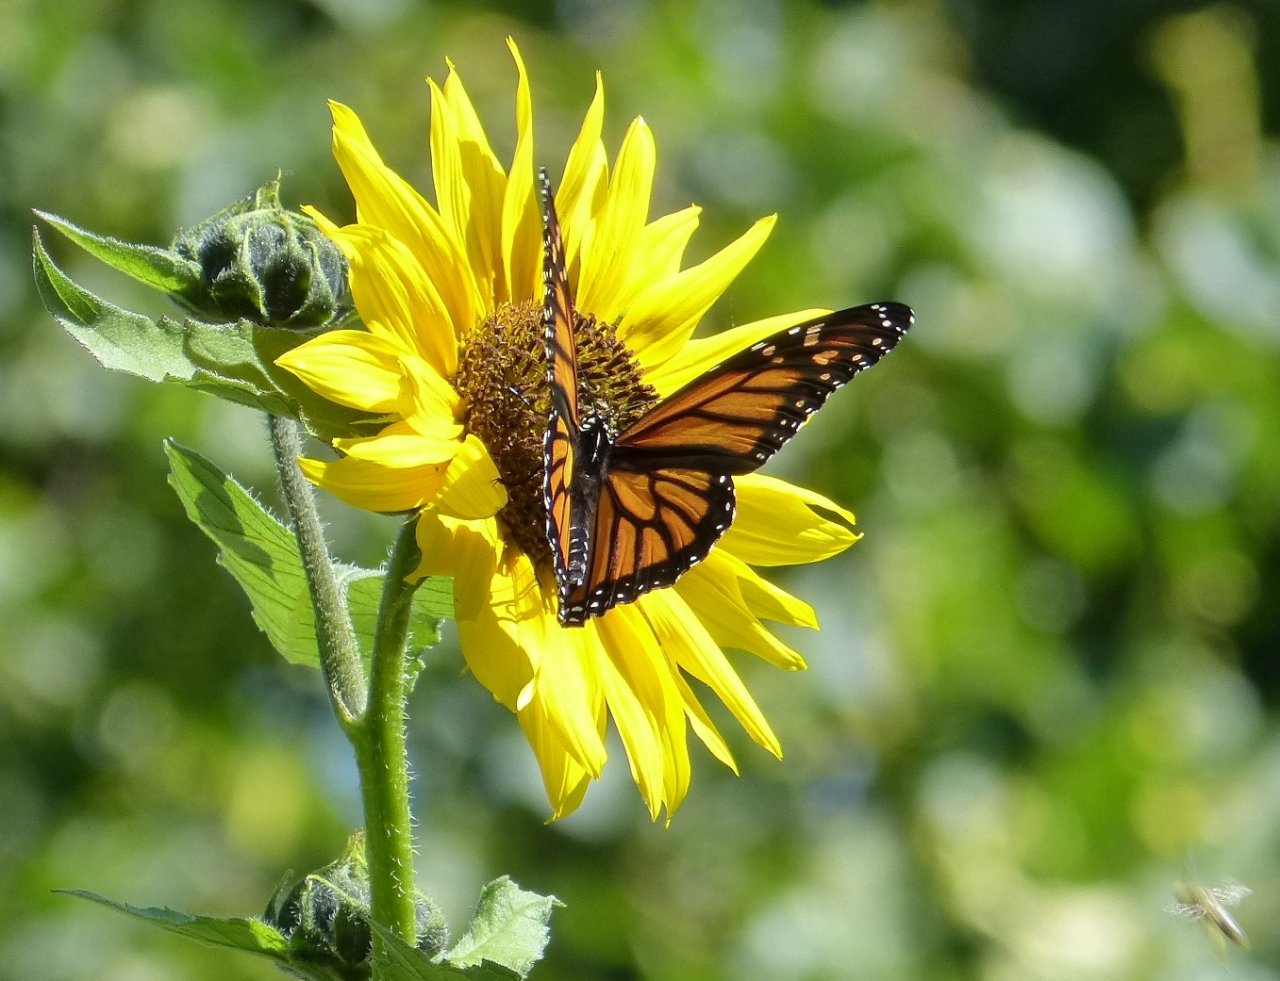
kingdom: Animalia
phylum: Arthropoda
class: Insecta
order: Lepidoptera
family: Nymphalidae
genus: Danaus
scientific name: Danaus plexippus
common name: Monarch
